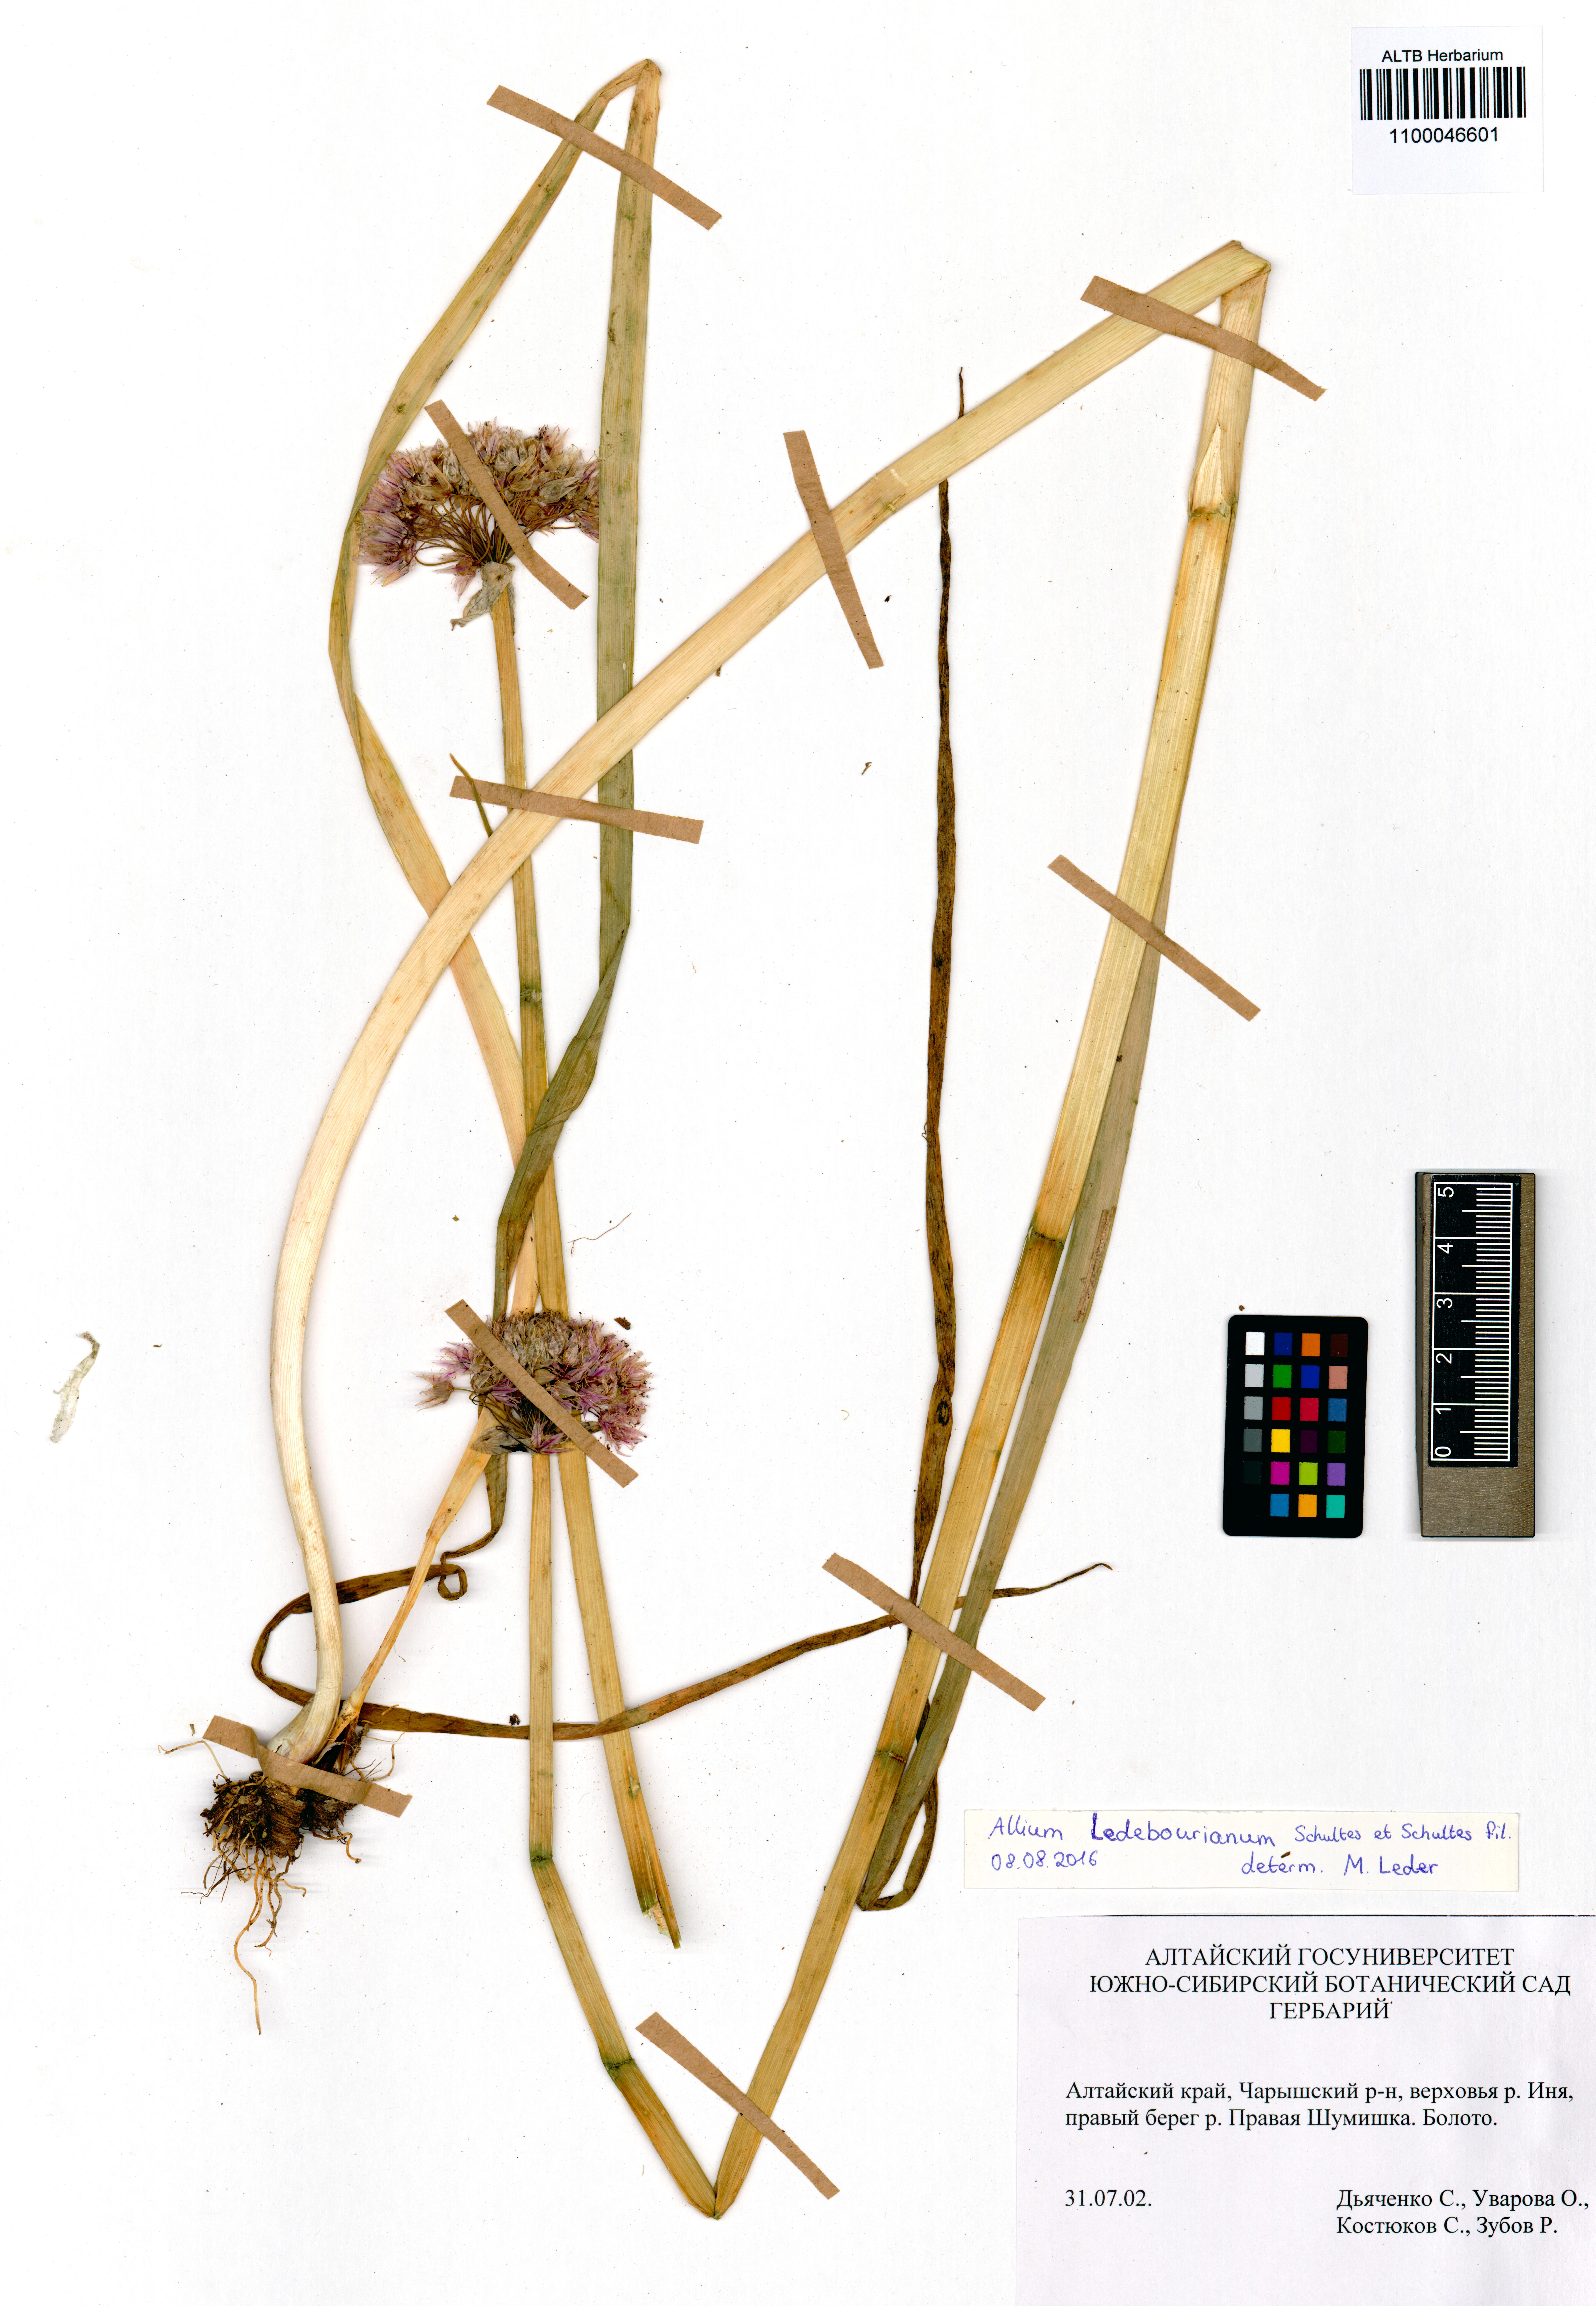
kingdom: Plantae
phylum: Tracheophyta
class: Liliopsida
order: Asparagales
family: Amaryllidaceae
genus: Allium
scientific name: Allium ledebourianum
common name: Ledebour chive
